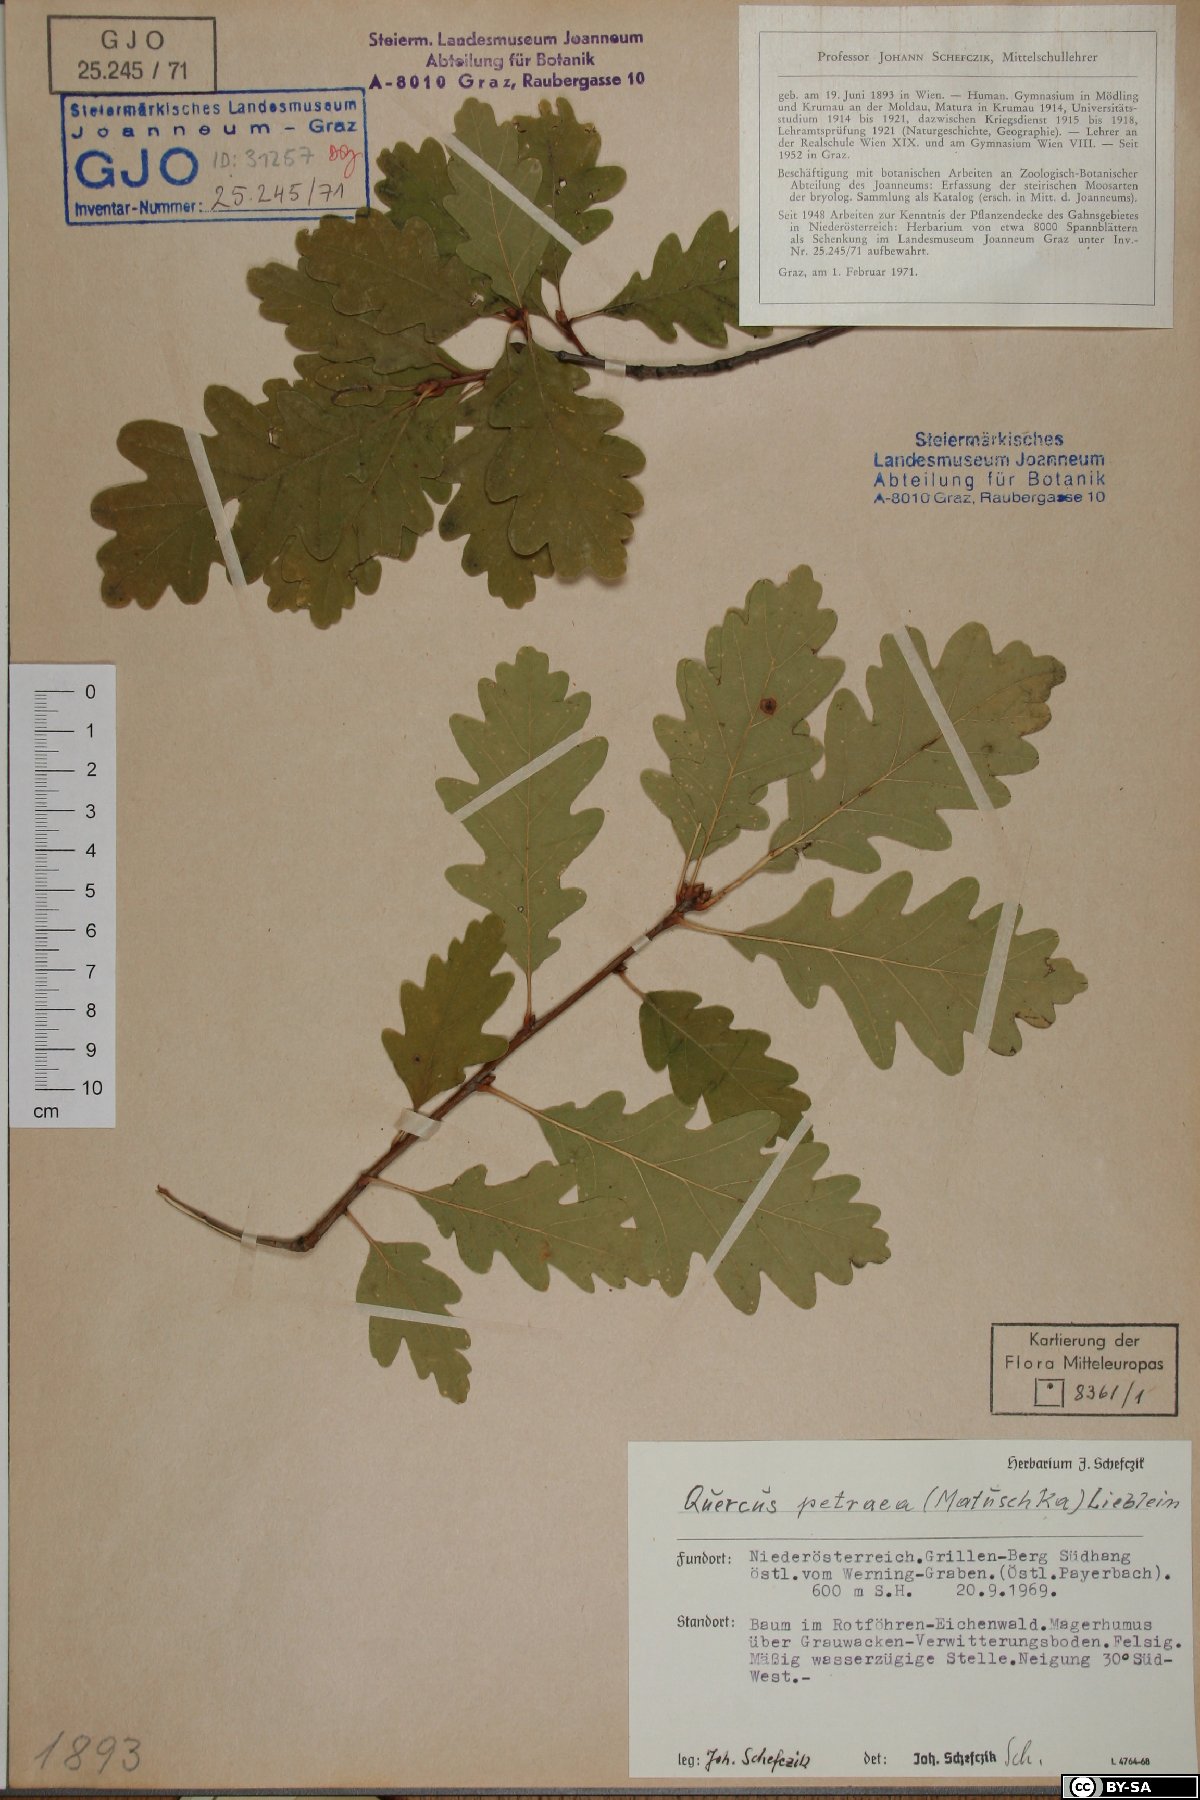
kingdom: Plantae
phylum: Tracheophyta
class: Magnoliopsida
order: Fagales
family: Fagaceae
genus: Quercus
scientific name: Quercus petraea
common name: Sessile oak
